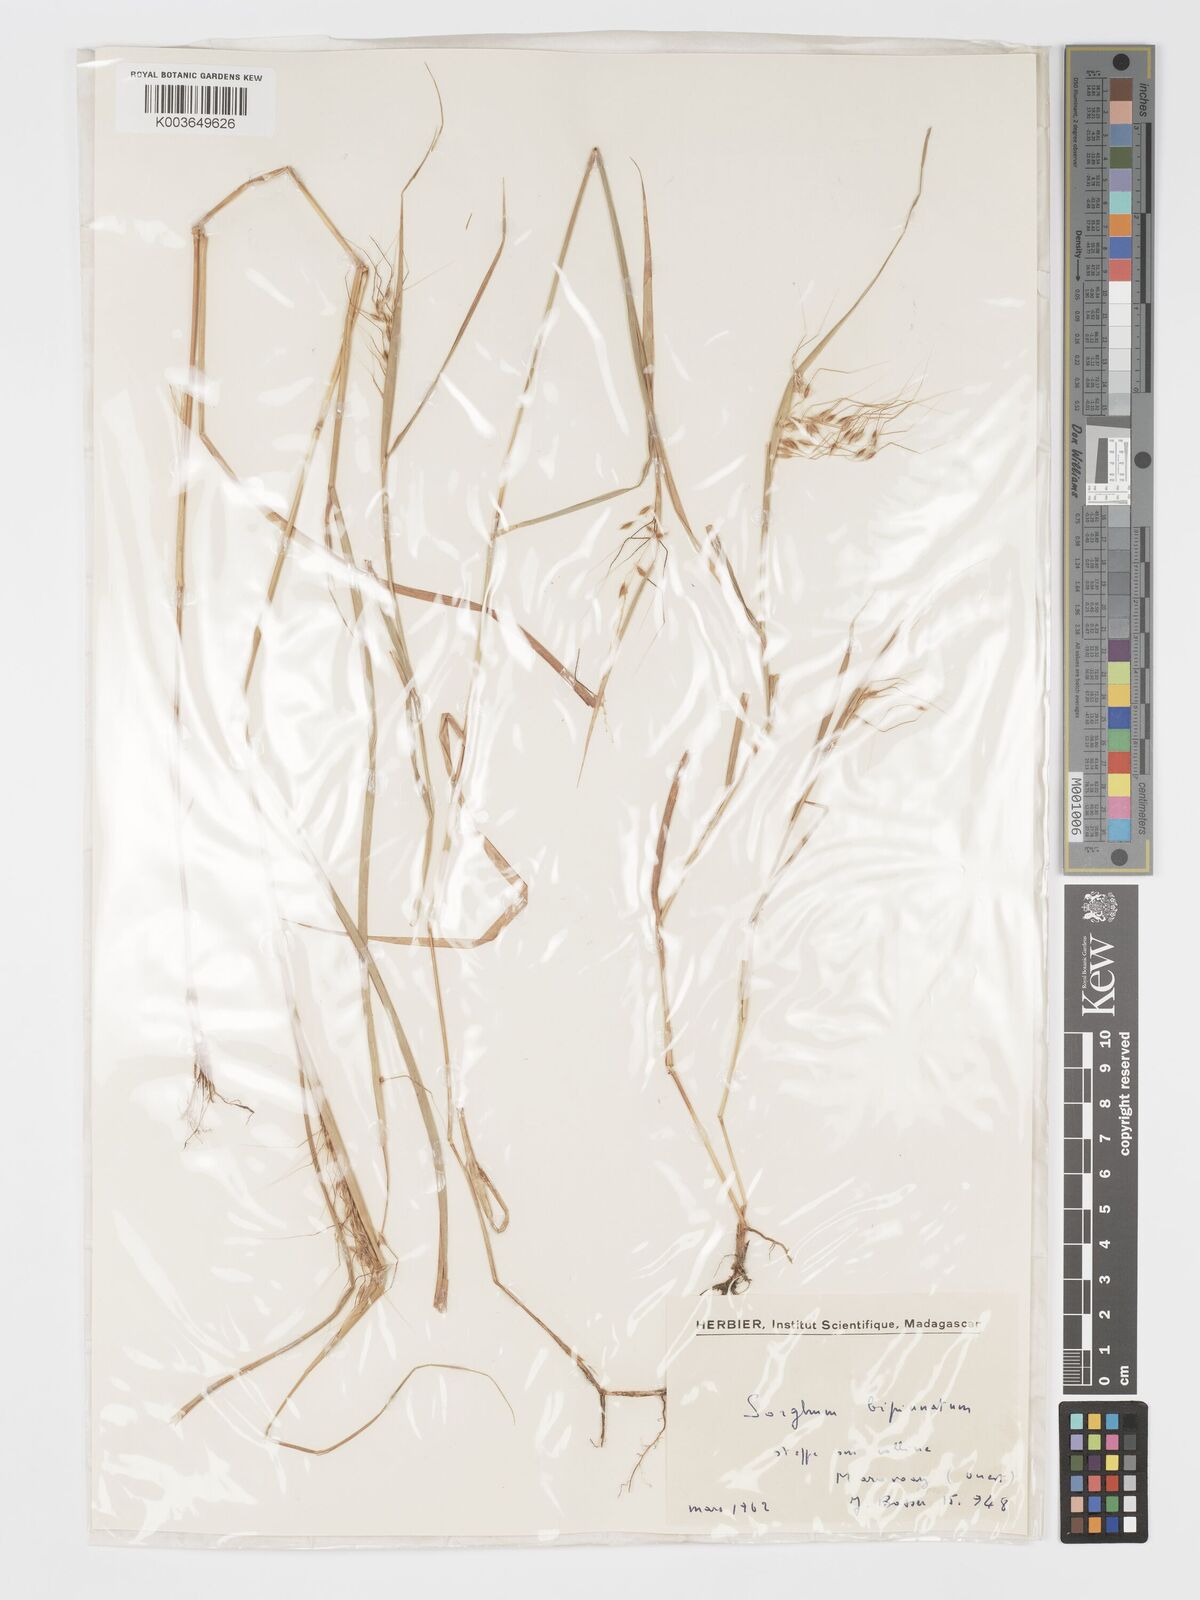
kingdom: Plantae
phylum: Tracheophyta
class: Liliopsida
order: Poales
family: Poaceae
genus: Sorghastrum
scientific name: Sorghastrum incompletum
